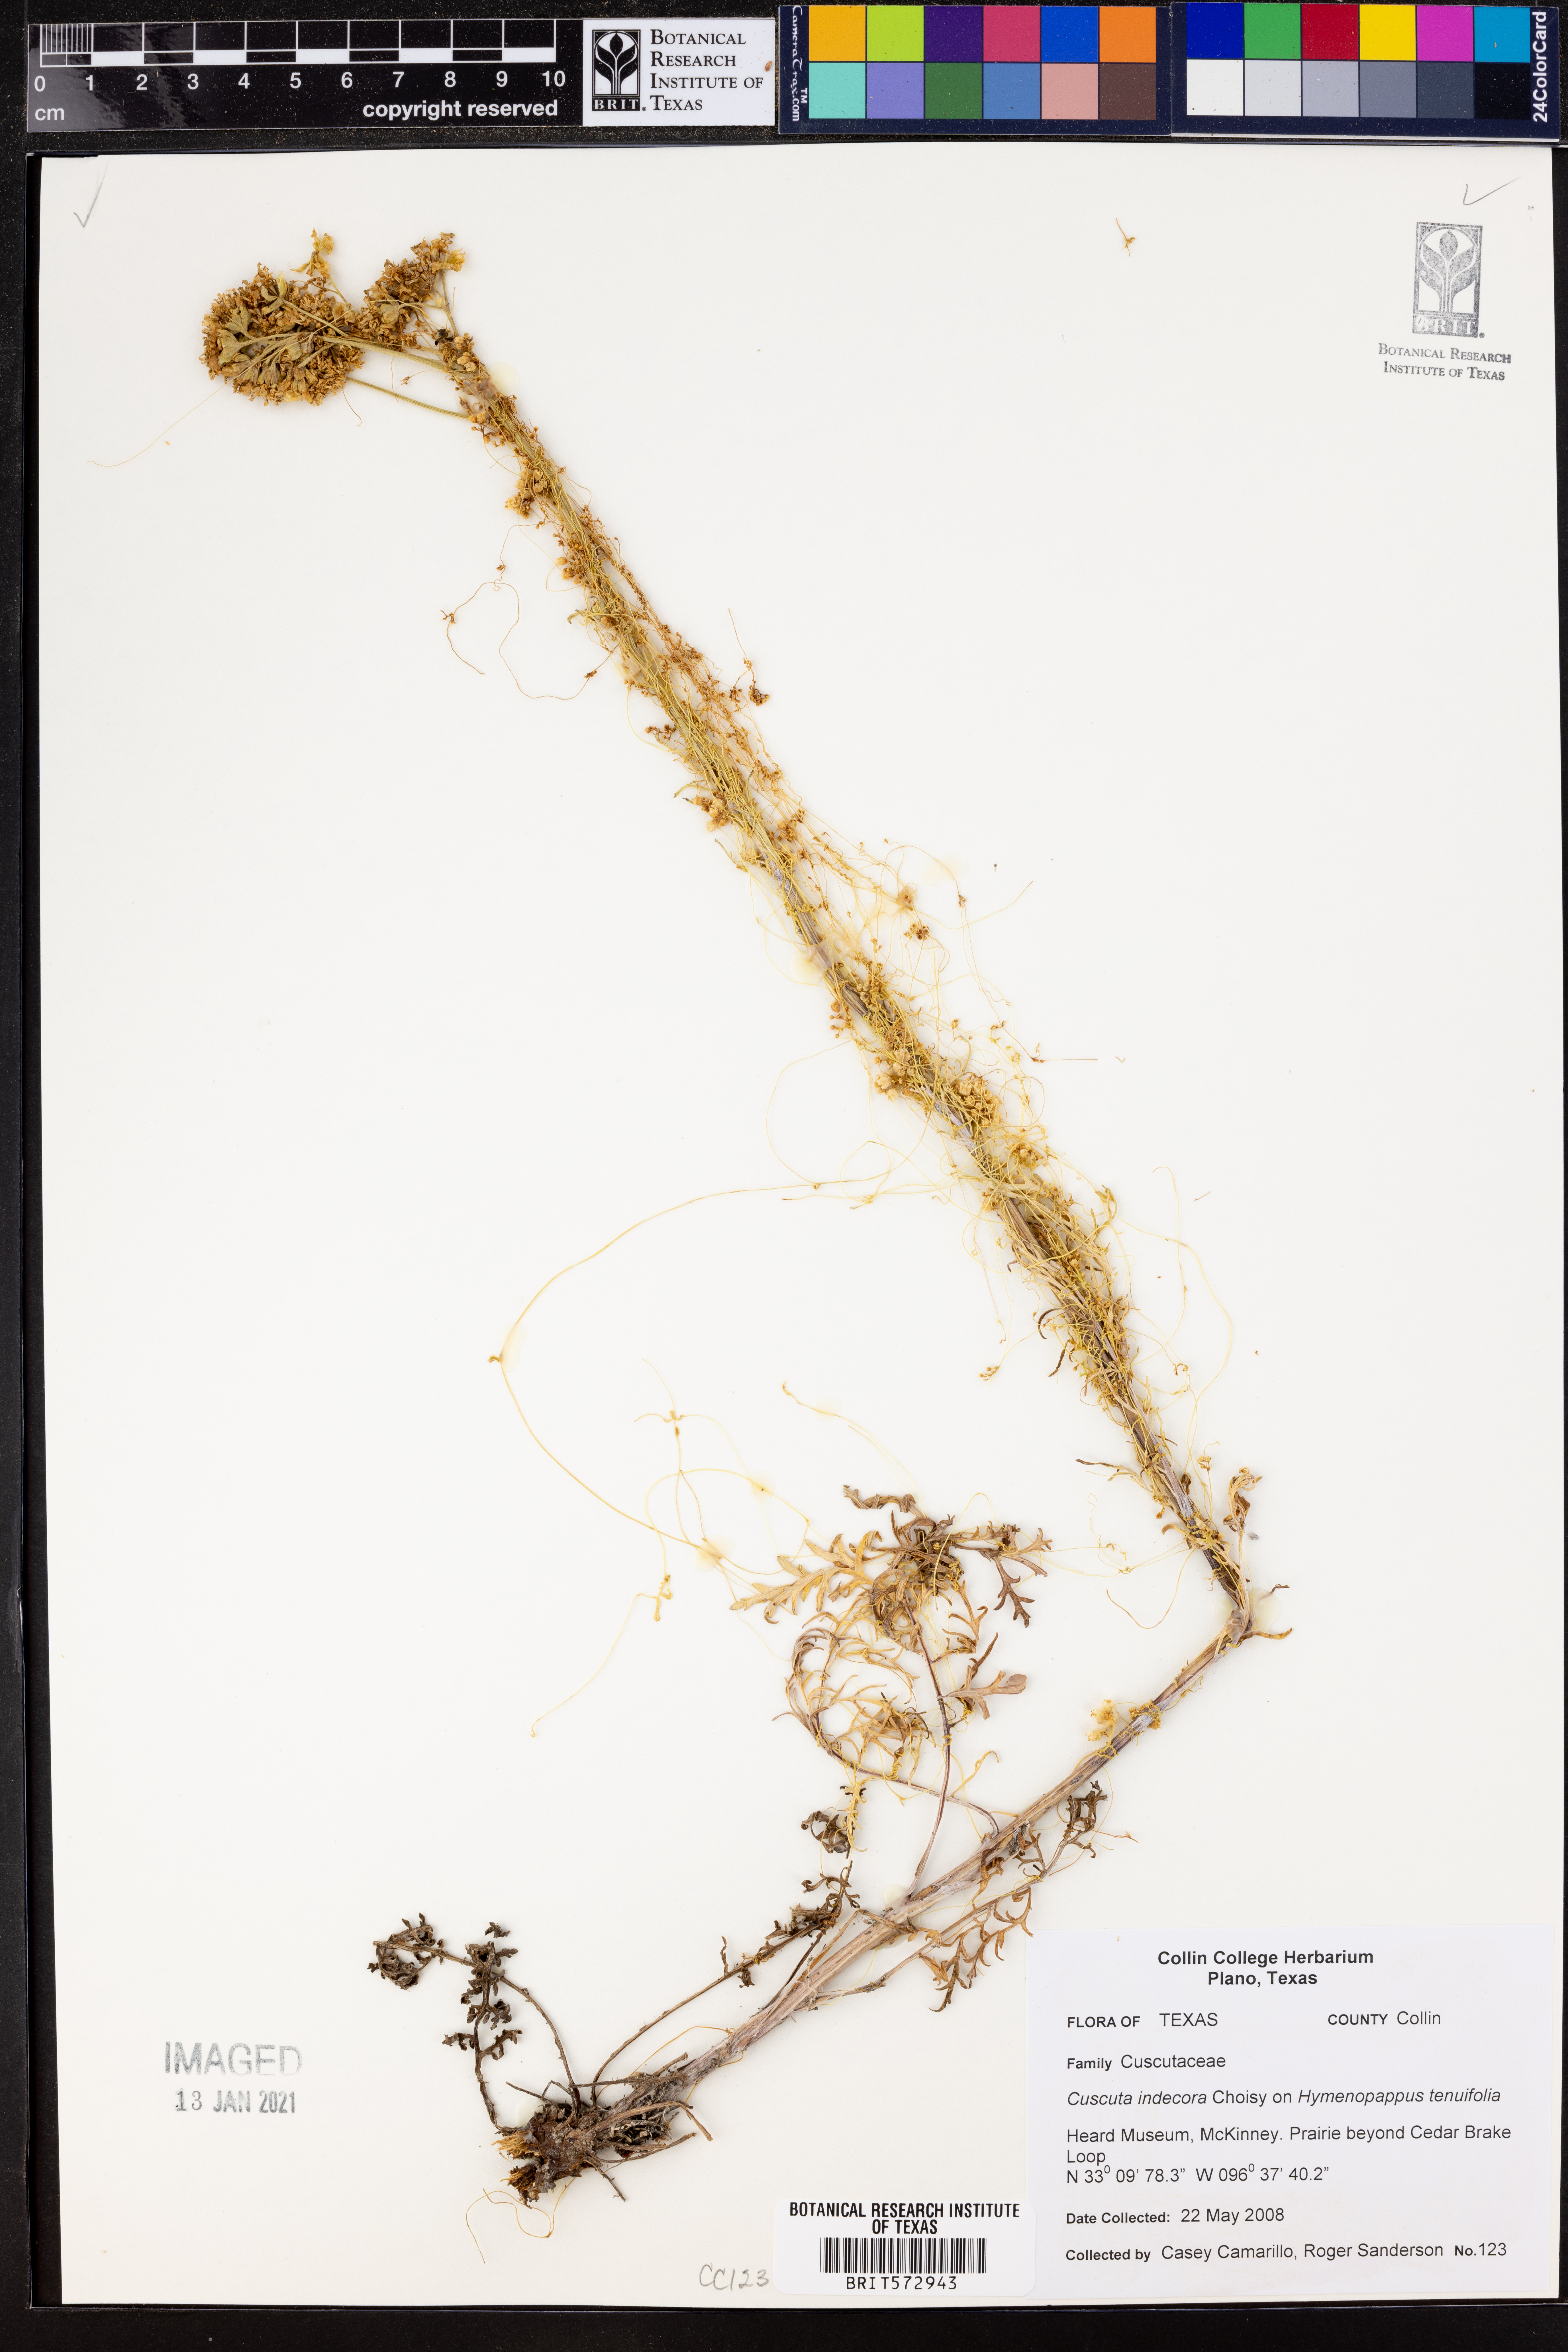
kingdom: Plantae
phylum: Tracheophyta
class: Magnoliopsida
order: Solanales
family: Convolvulaceae
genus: Cuscuta
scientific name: Cuscuta indecora
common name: Large-seed dodder
